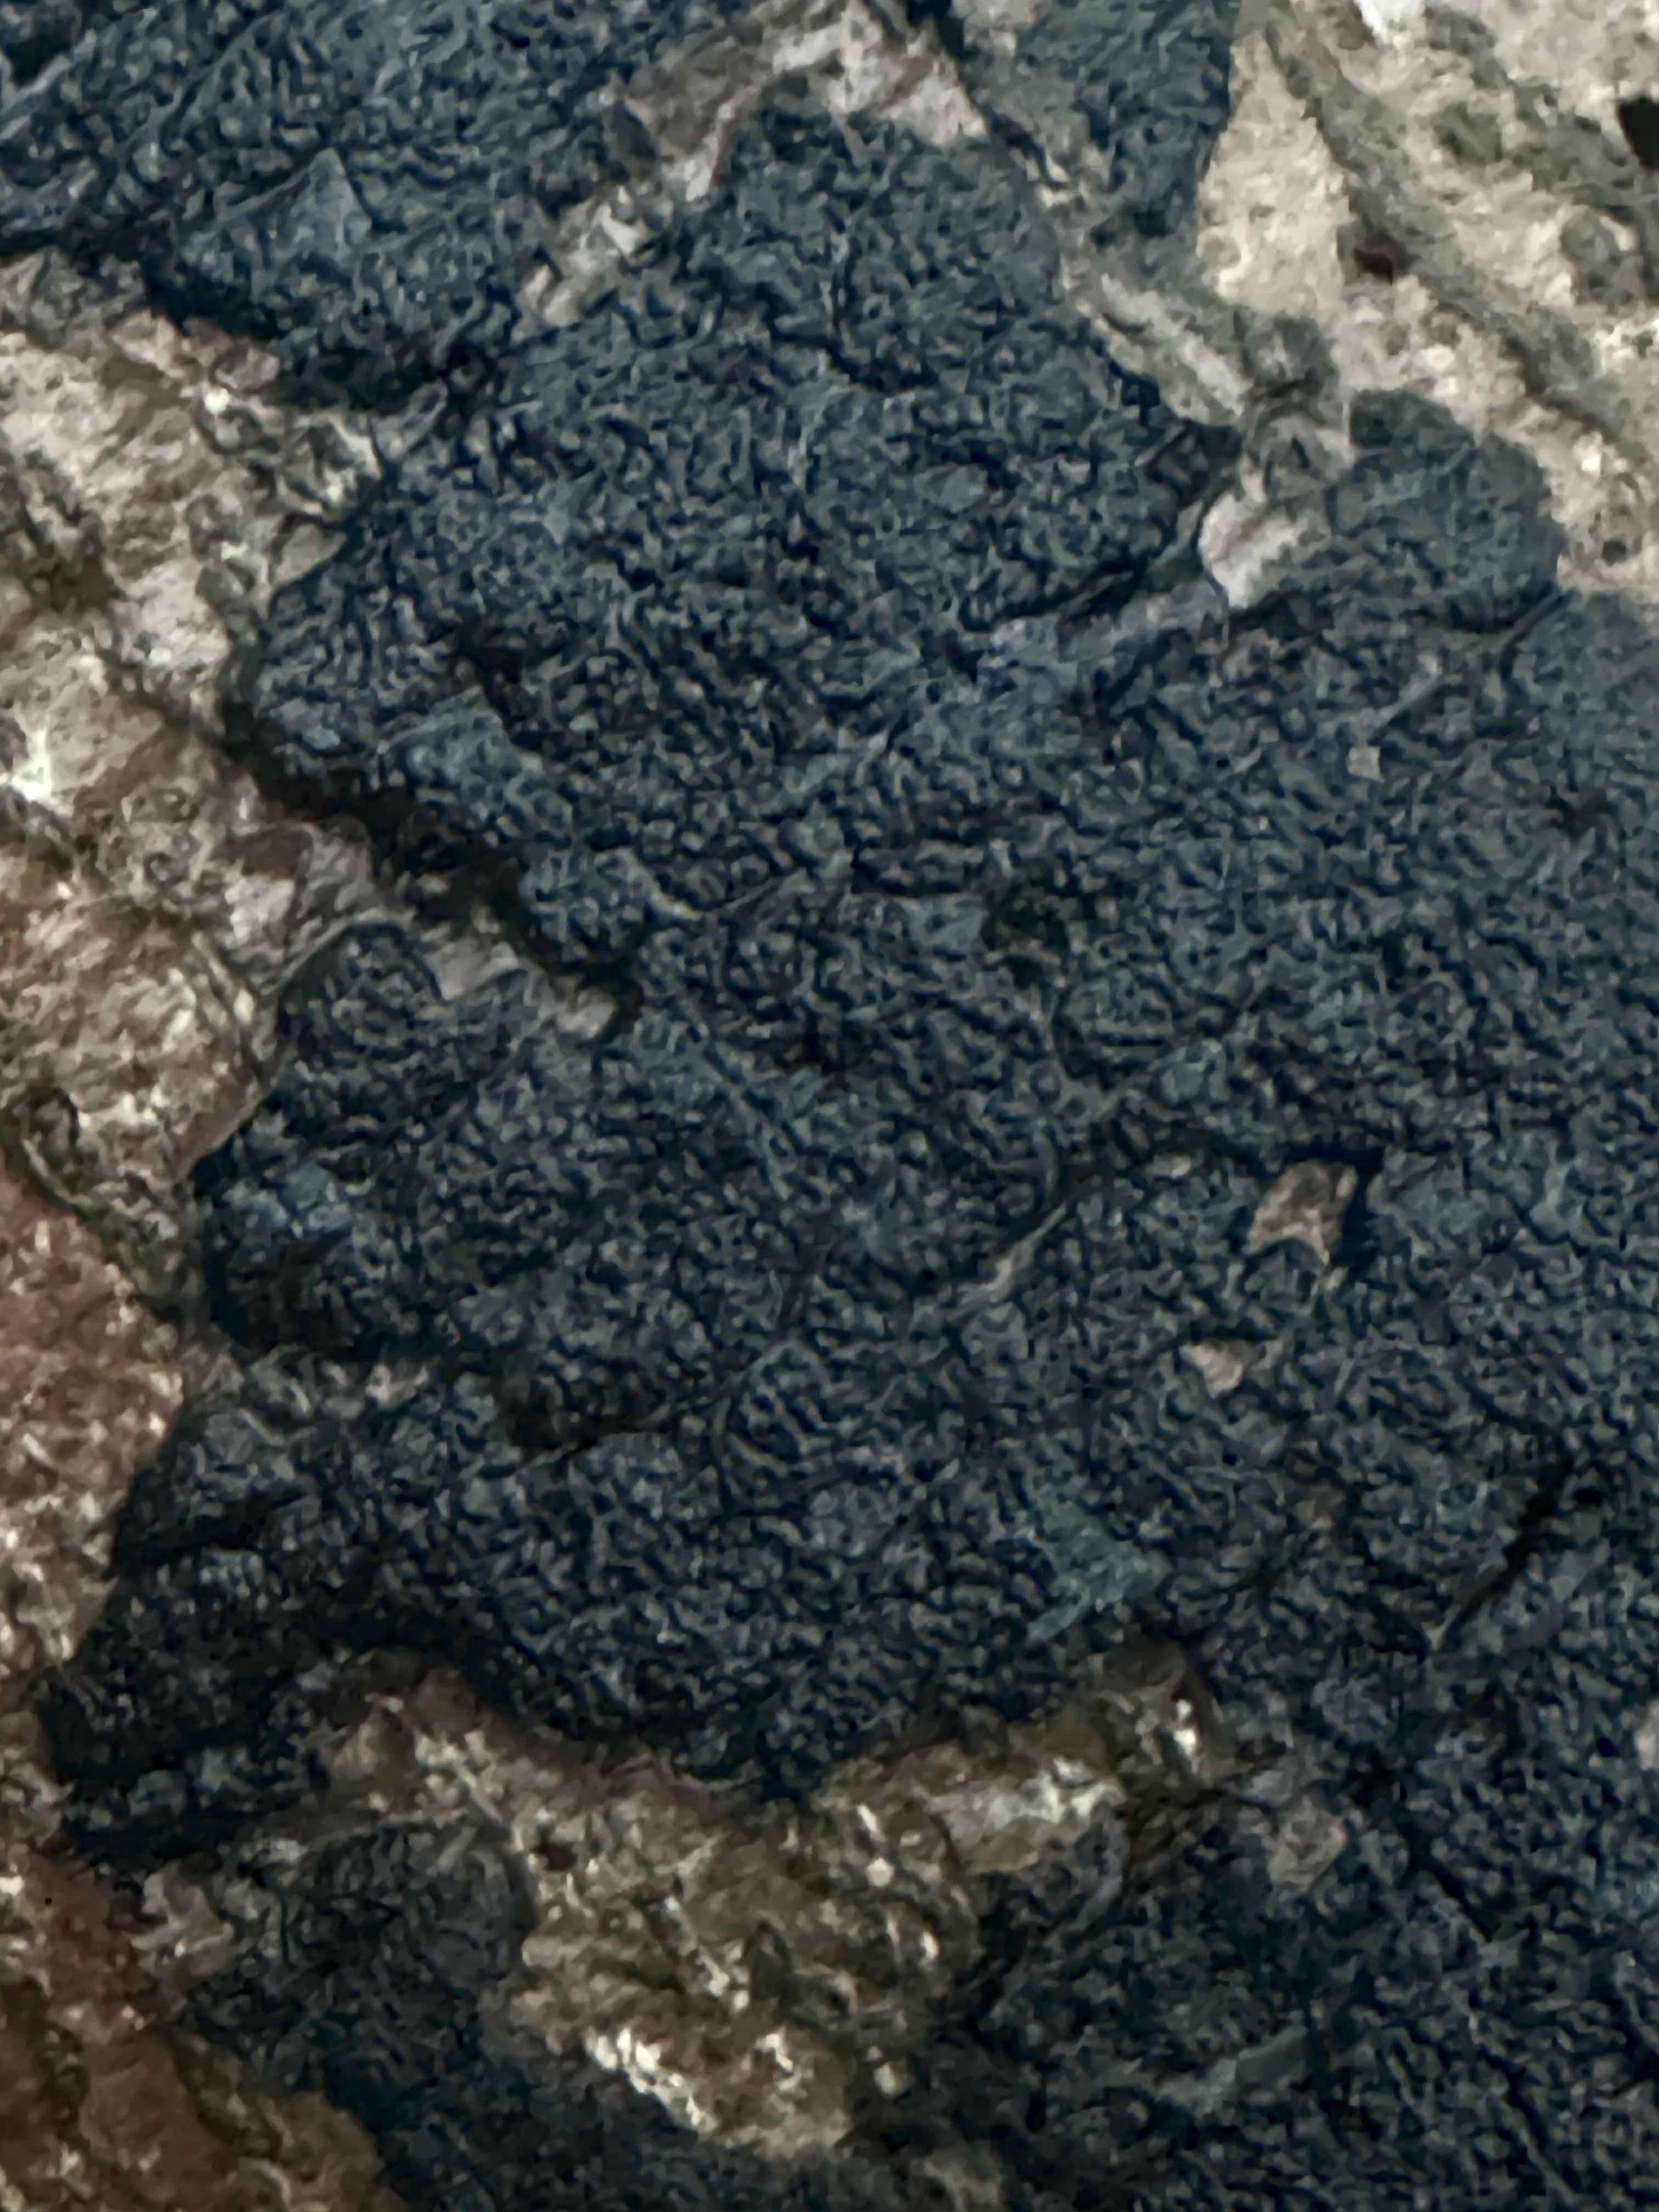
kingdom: Fungi
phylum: Ascomycota
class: Sordariomycetes
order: Xylariales
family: Diatrypaceae
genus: Eutypa
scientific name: Eutypa spinosa
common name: grov kulskorpe
